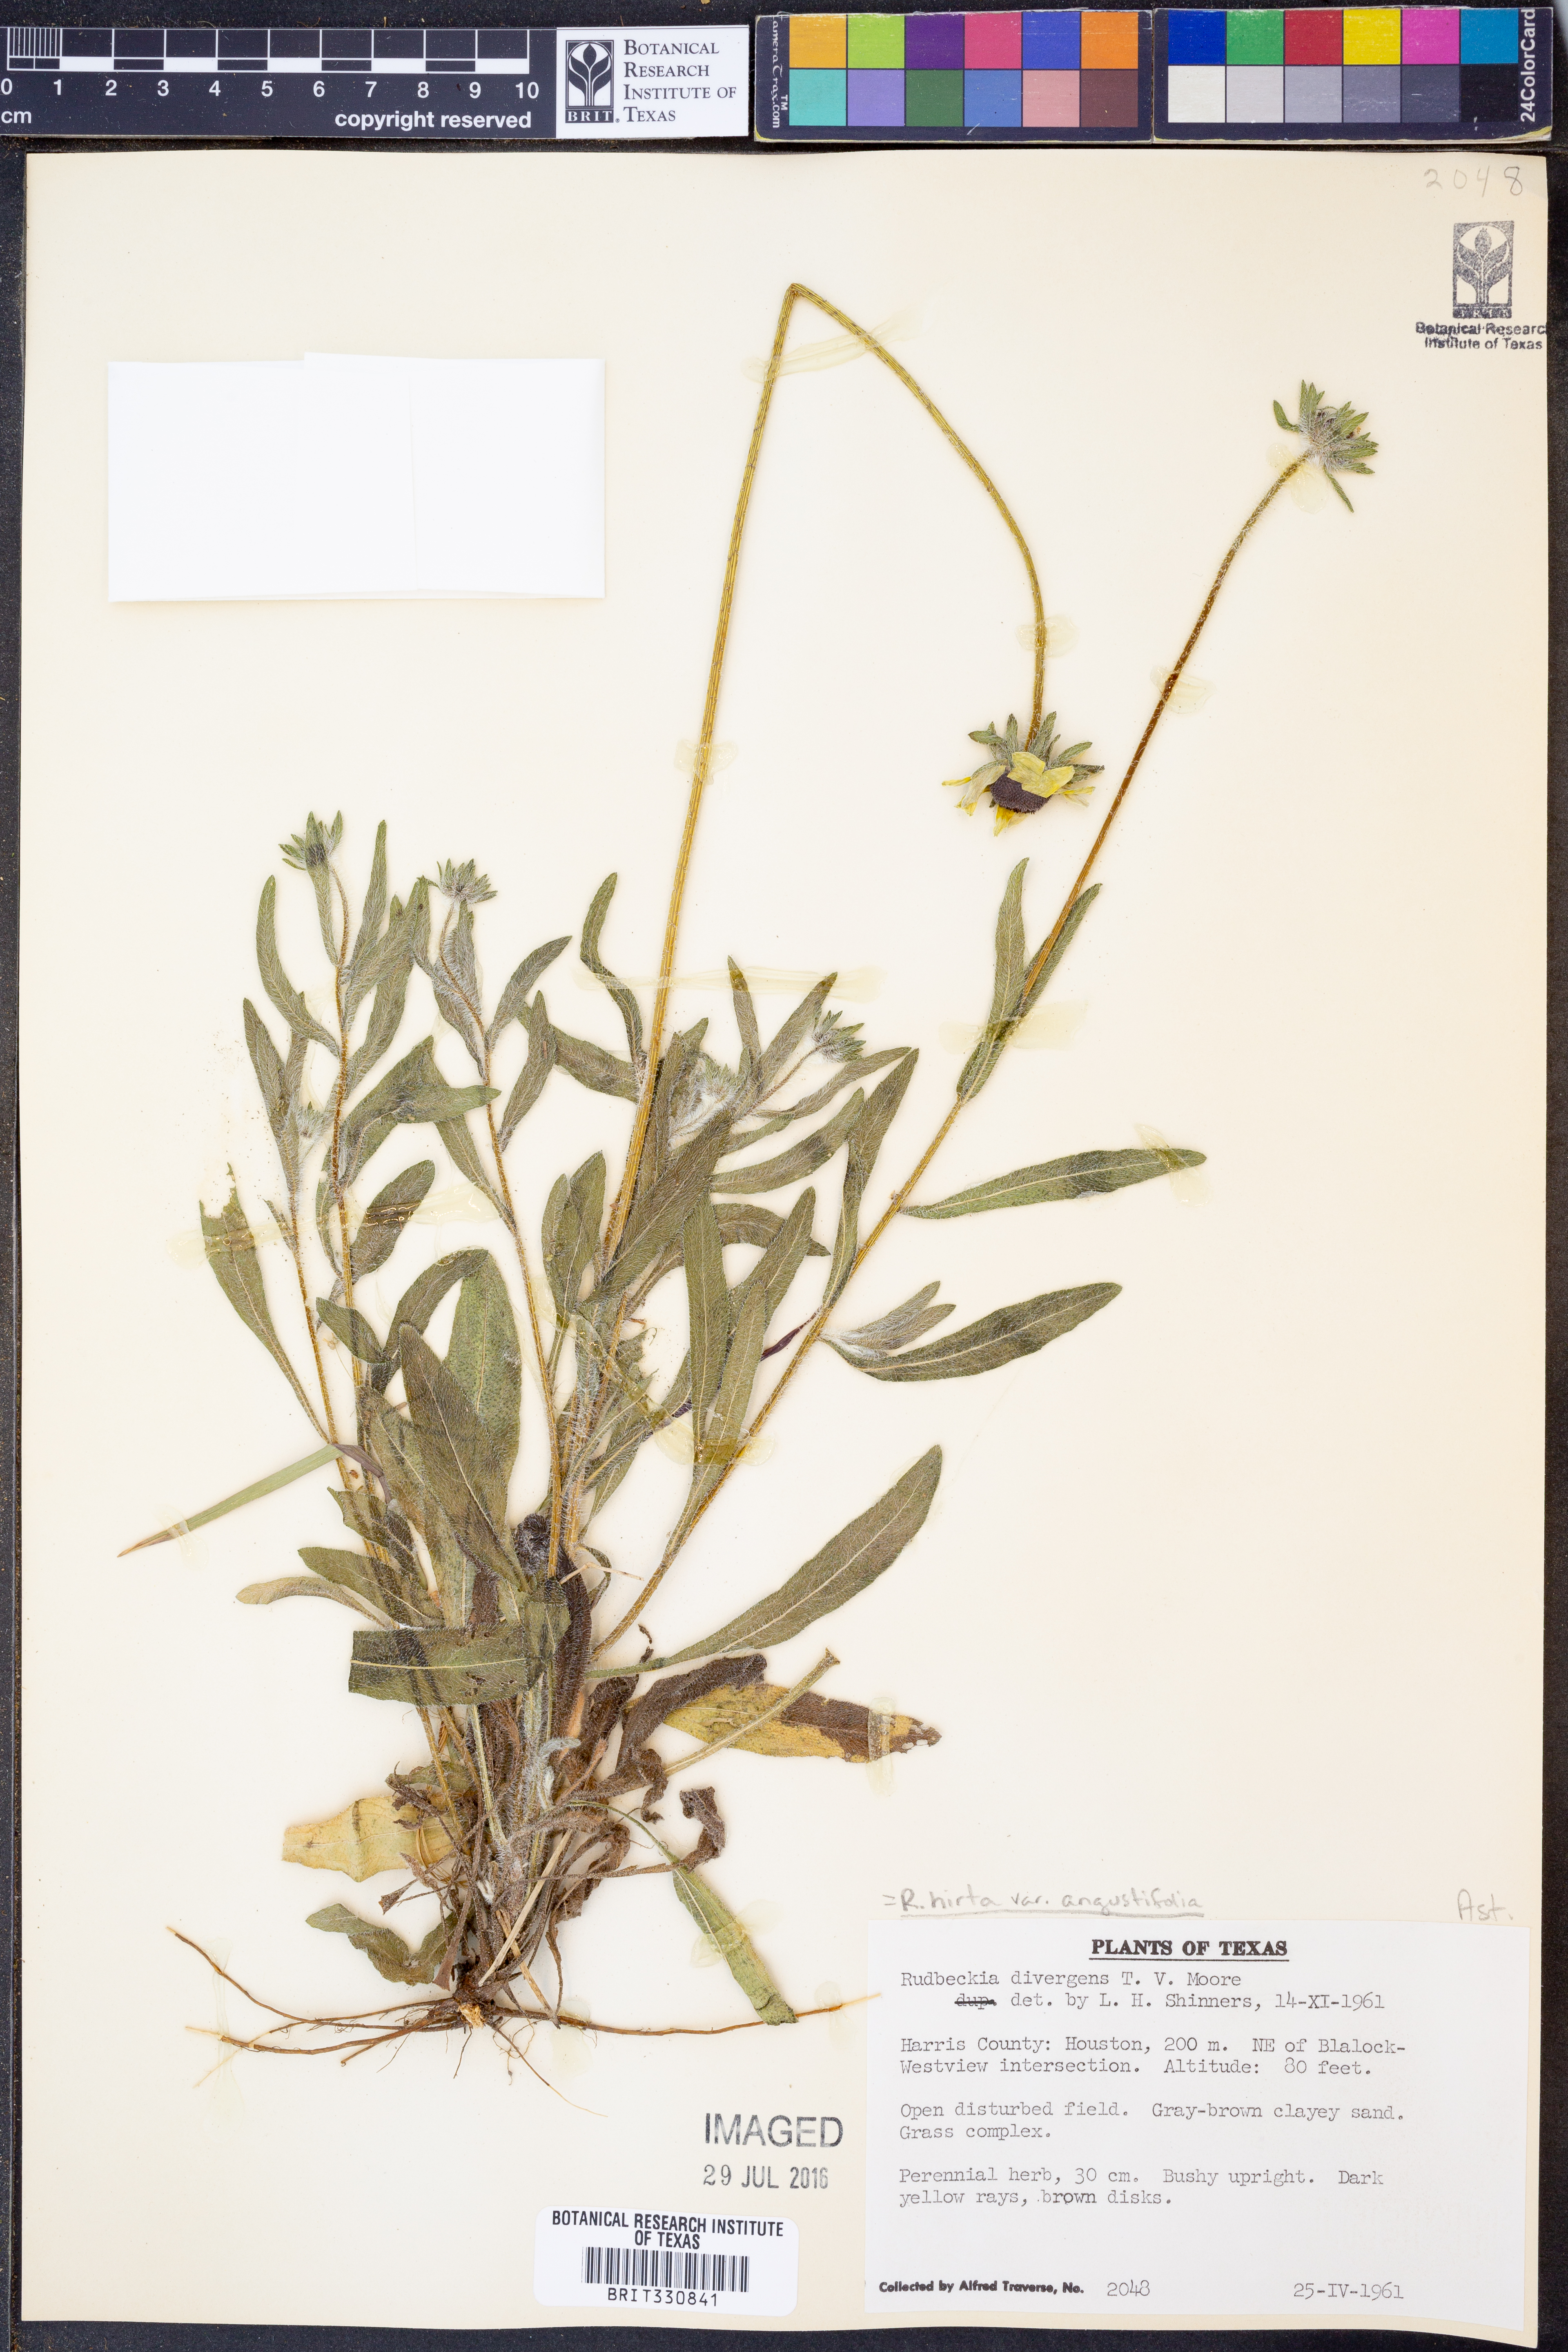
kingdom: Plantae
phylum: Tracheophyta
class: Magnoliopsida
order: Asterales
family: Asteraceae
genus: Rudbeckia
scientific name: Rudbeckia hirta
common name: Black-eyed-susan
